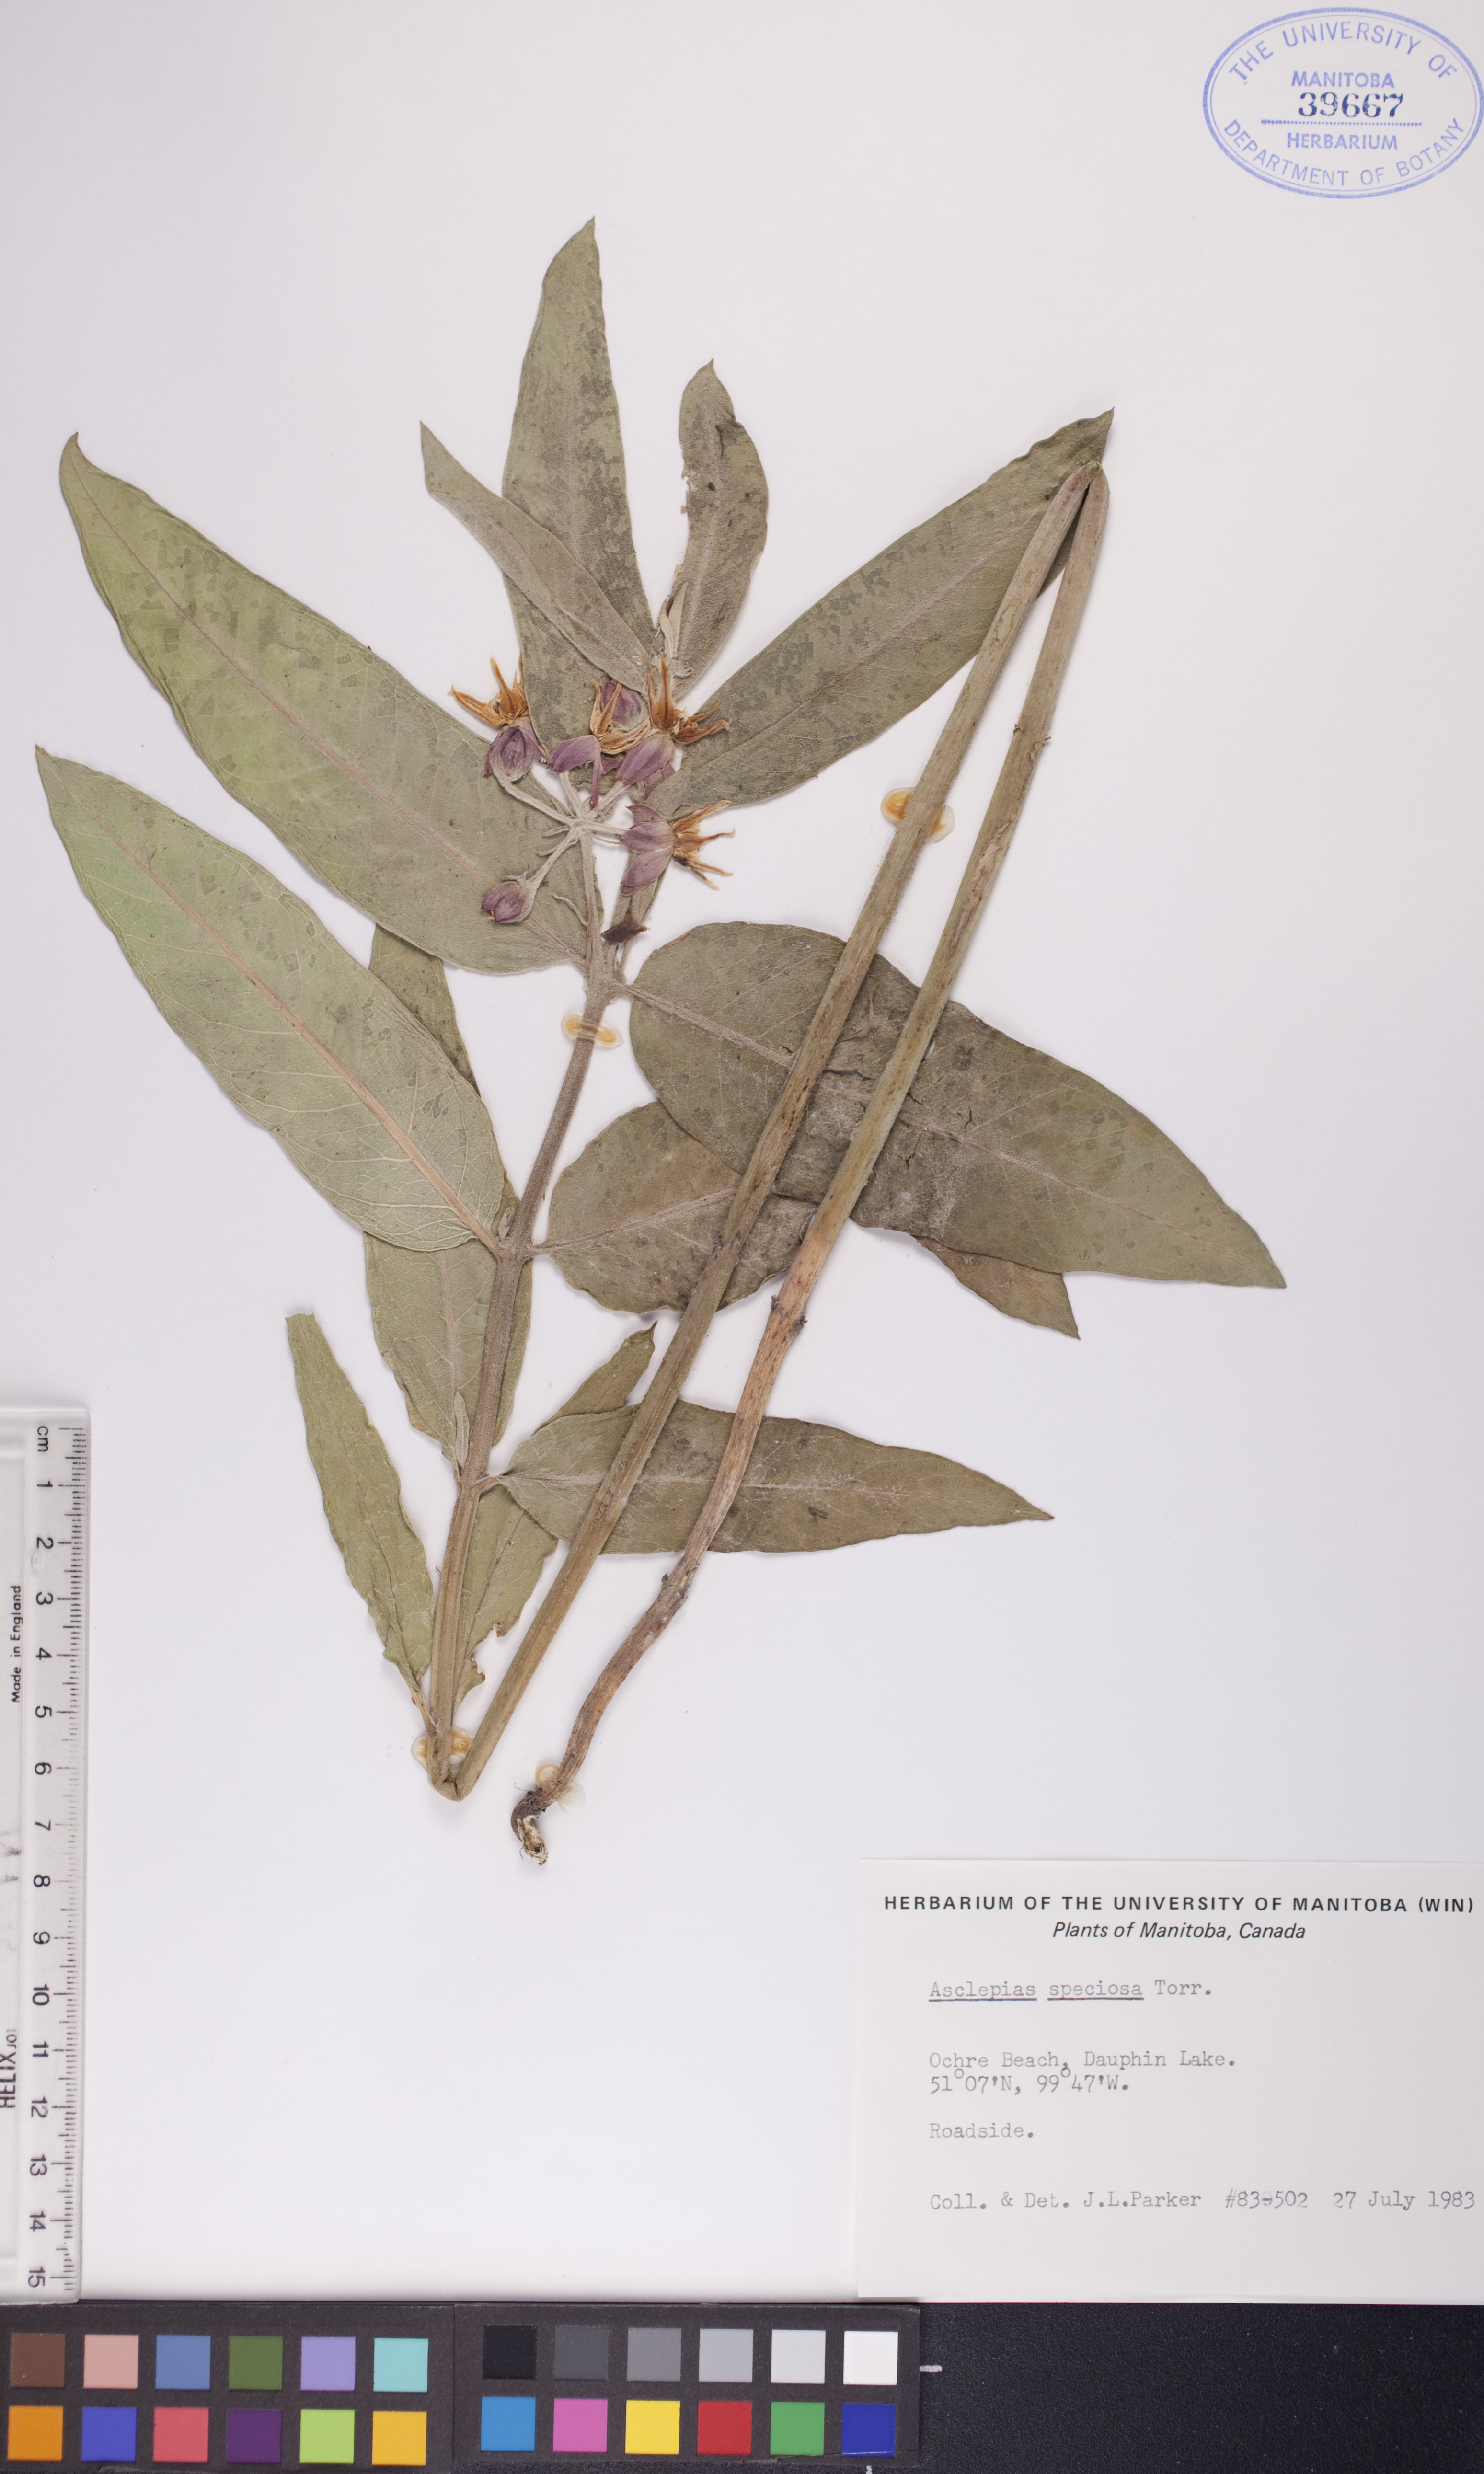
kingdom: Plantae
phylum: Tracheophyta
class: Magnoliopsida
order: Gentianales
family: Apocynaceae
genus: Asclepias
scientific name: Asclepias speciosa
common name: Showy milkweed
